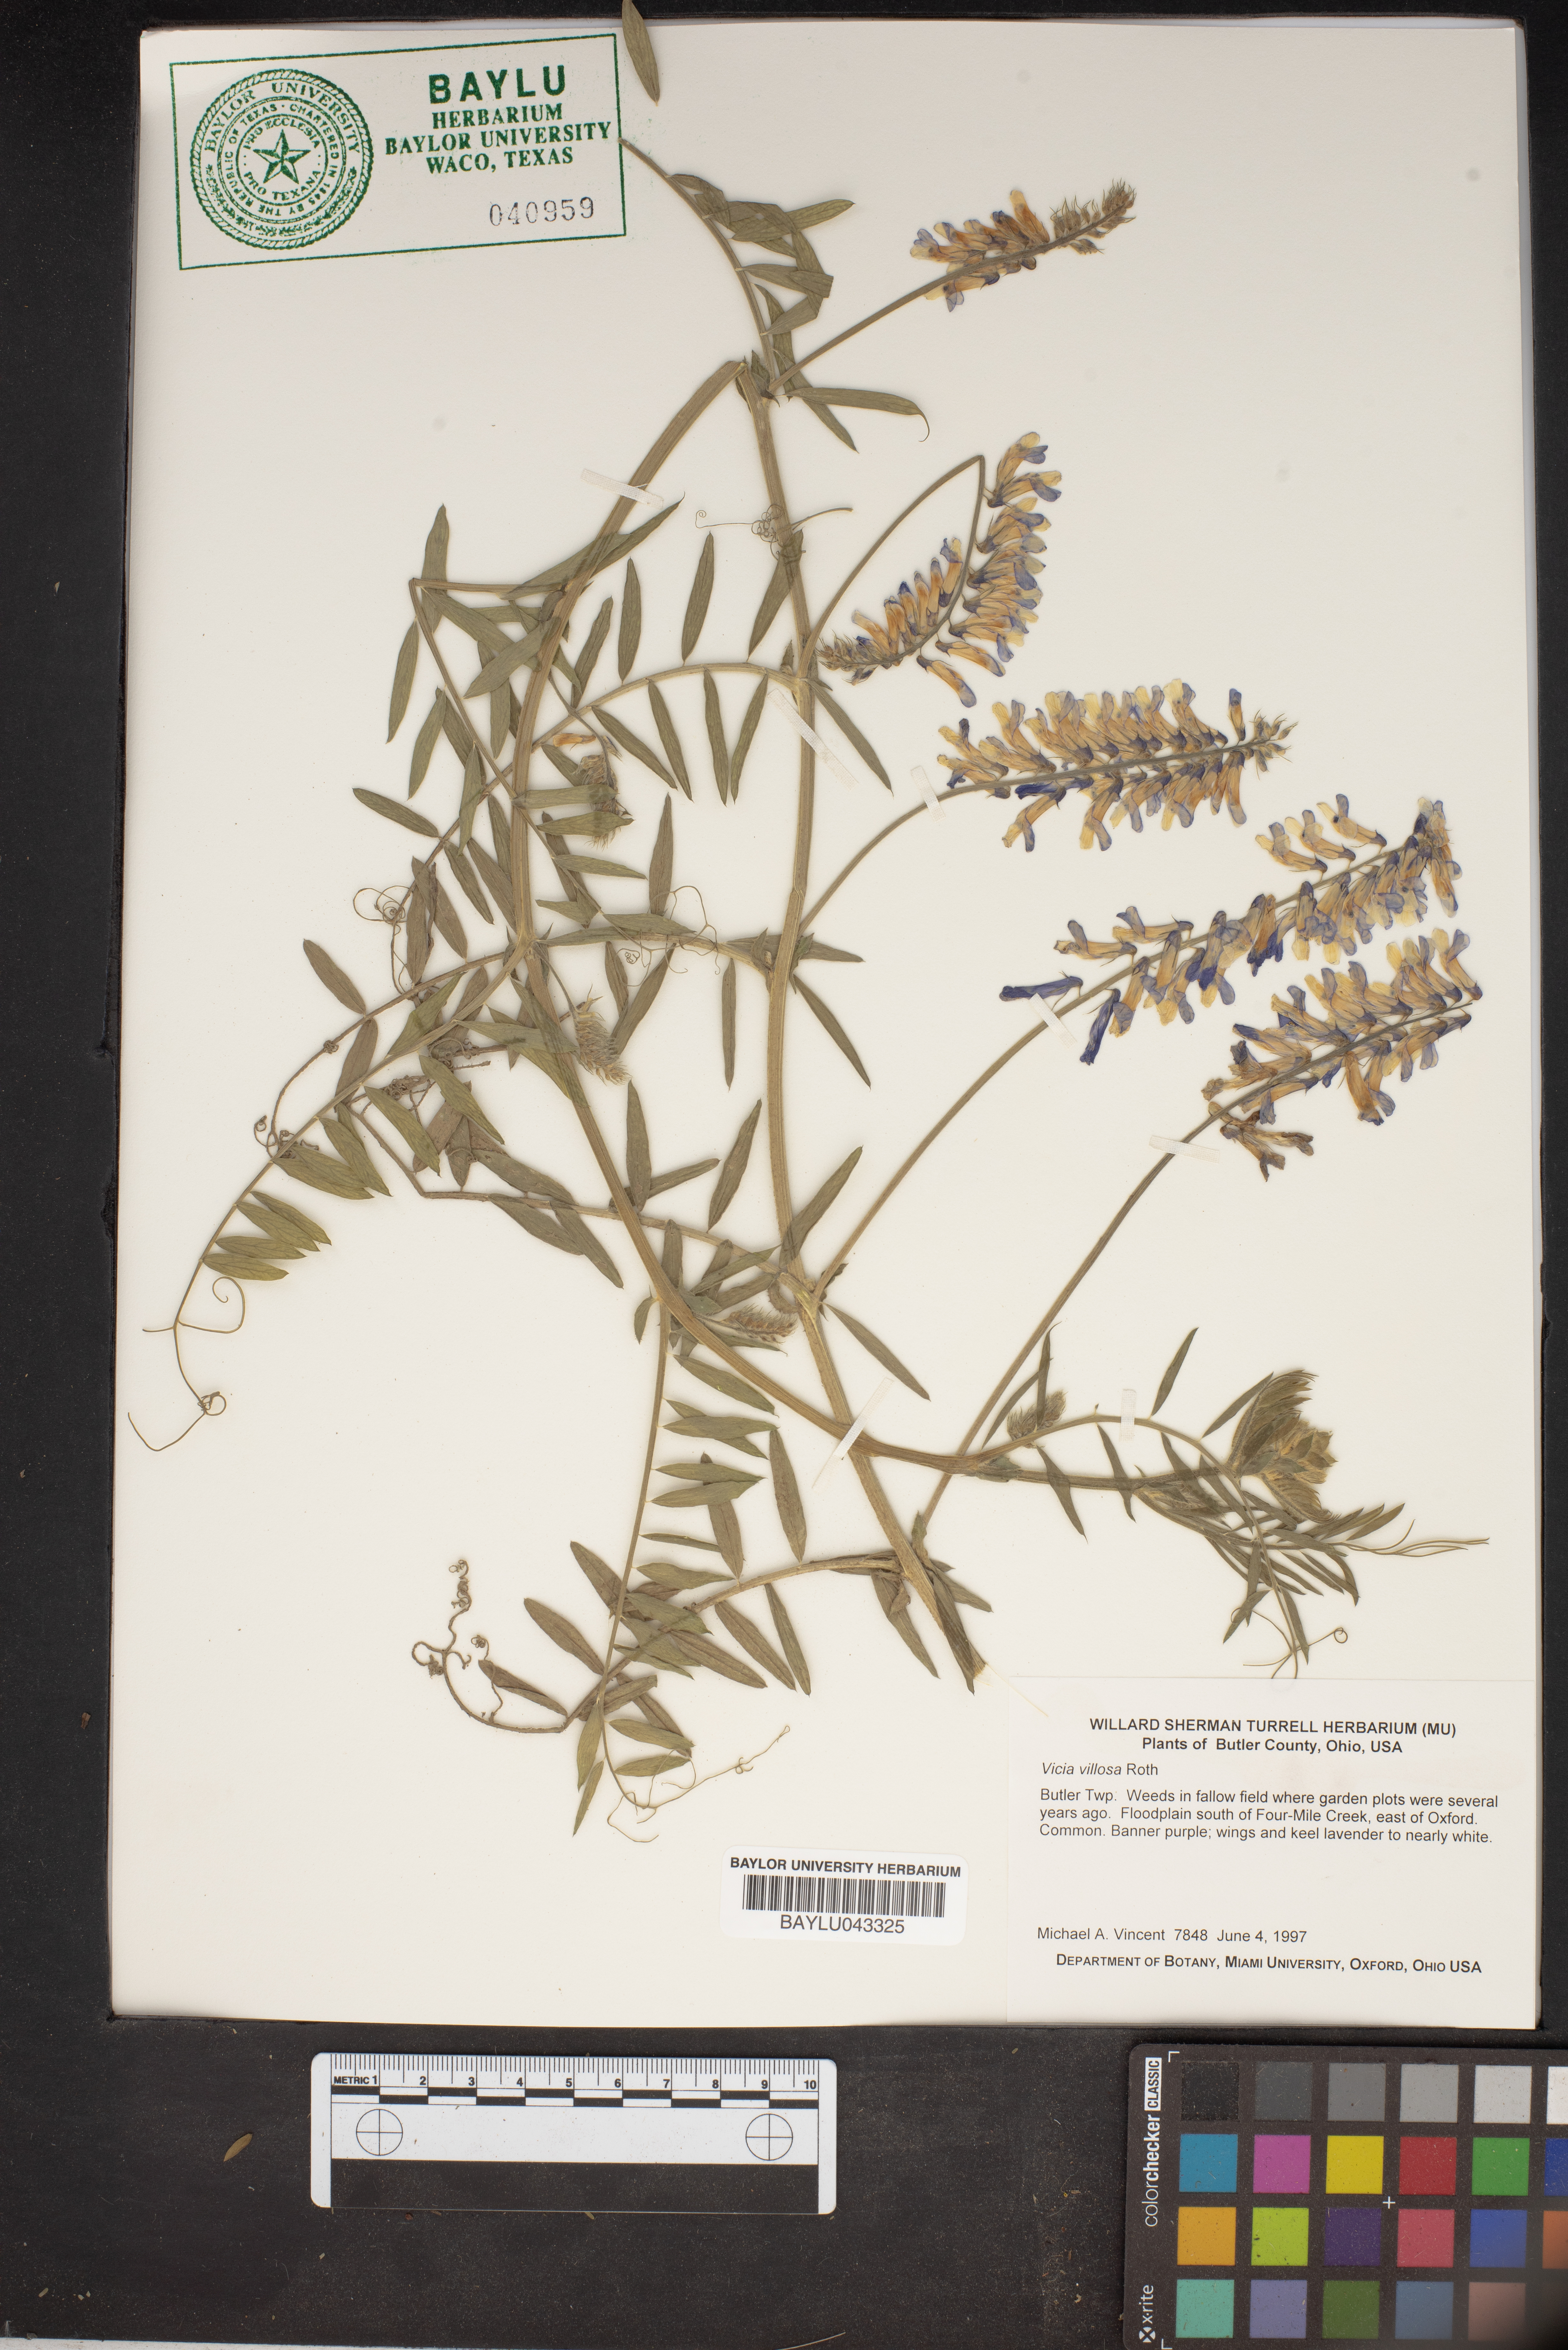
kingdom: Plantae
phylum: Tracheophyta
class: Magnoliopsida
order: Fabales
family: Fabaceae
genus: Vicia
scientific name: Vicia villosa
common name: Fodder vetch
